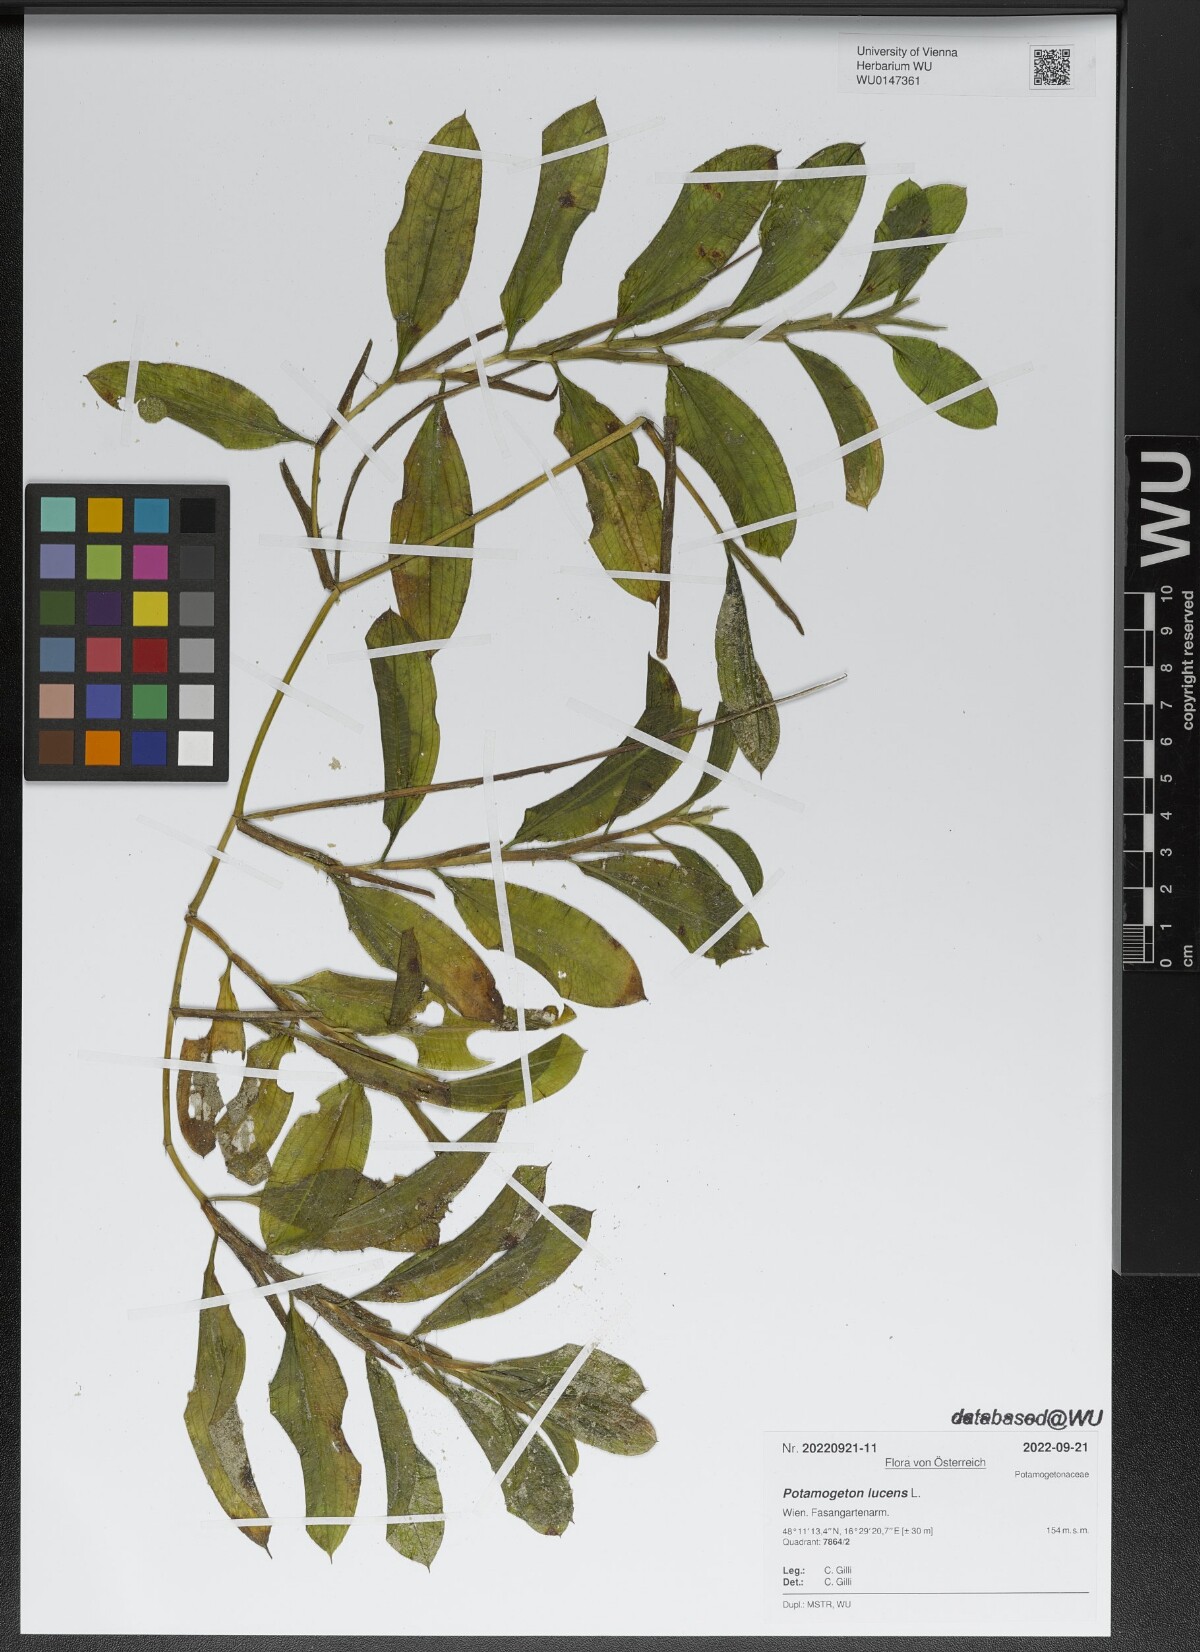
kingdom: Plantae
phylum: Tracheophyta
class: Liliopsida
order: Alismatales
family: Potamogetonaceae
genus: Potamogeton
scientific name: Potamogeton lucens
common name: Shining pondweed
